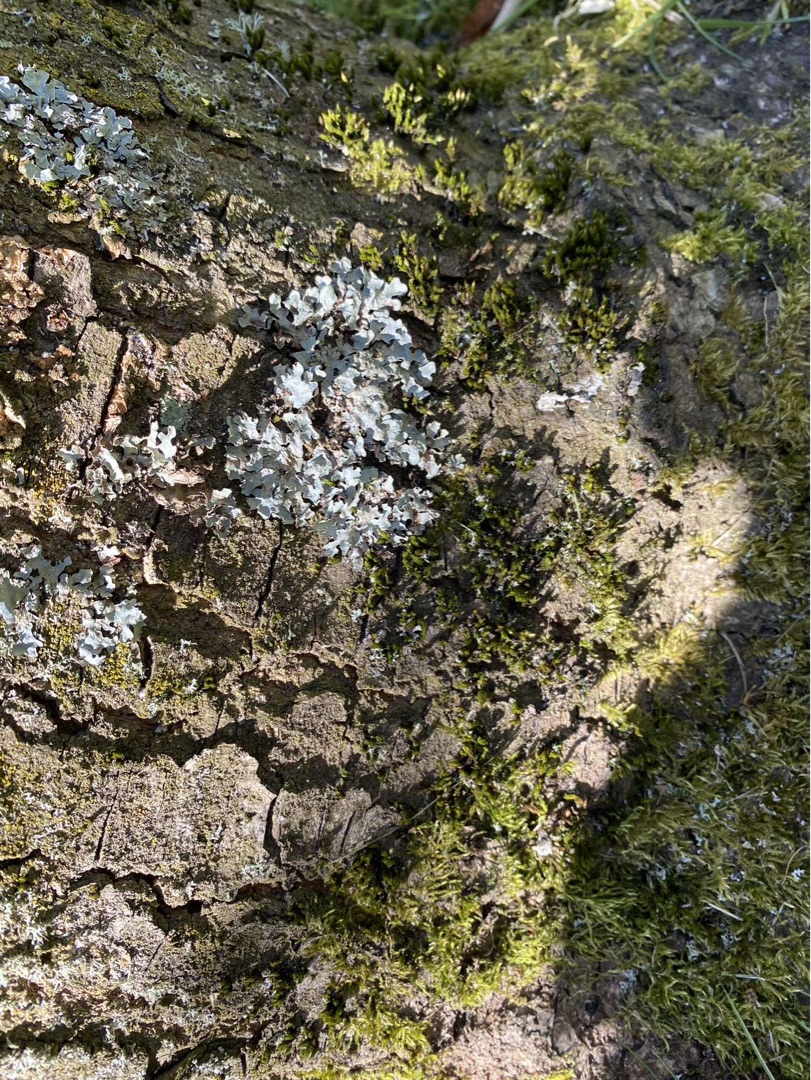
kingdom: Fungi
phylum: Ascomycota
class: Lecanoromycetes
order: Lecanorales
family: Parmeliaceae
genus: Parmelia
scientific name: Parmelia sulcata
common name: Rynket skållav
